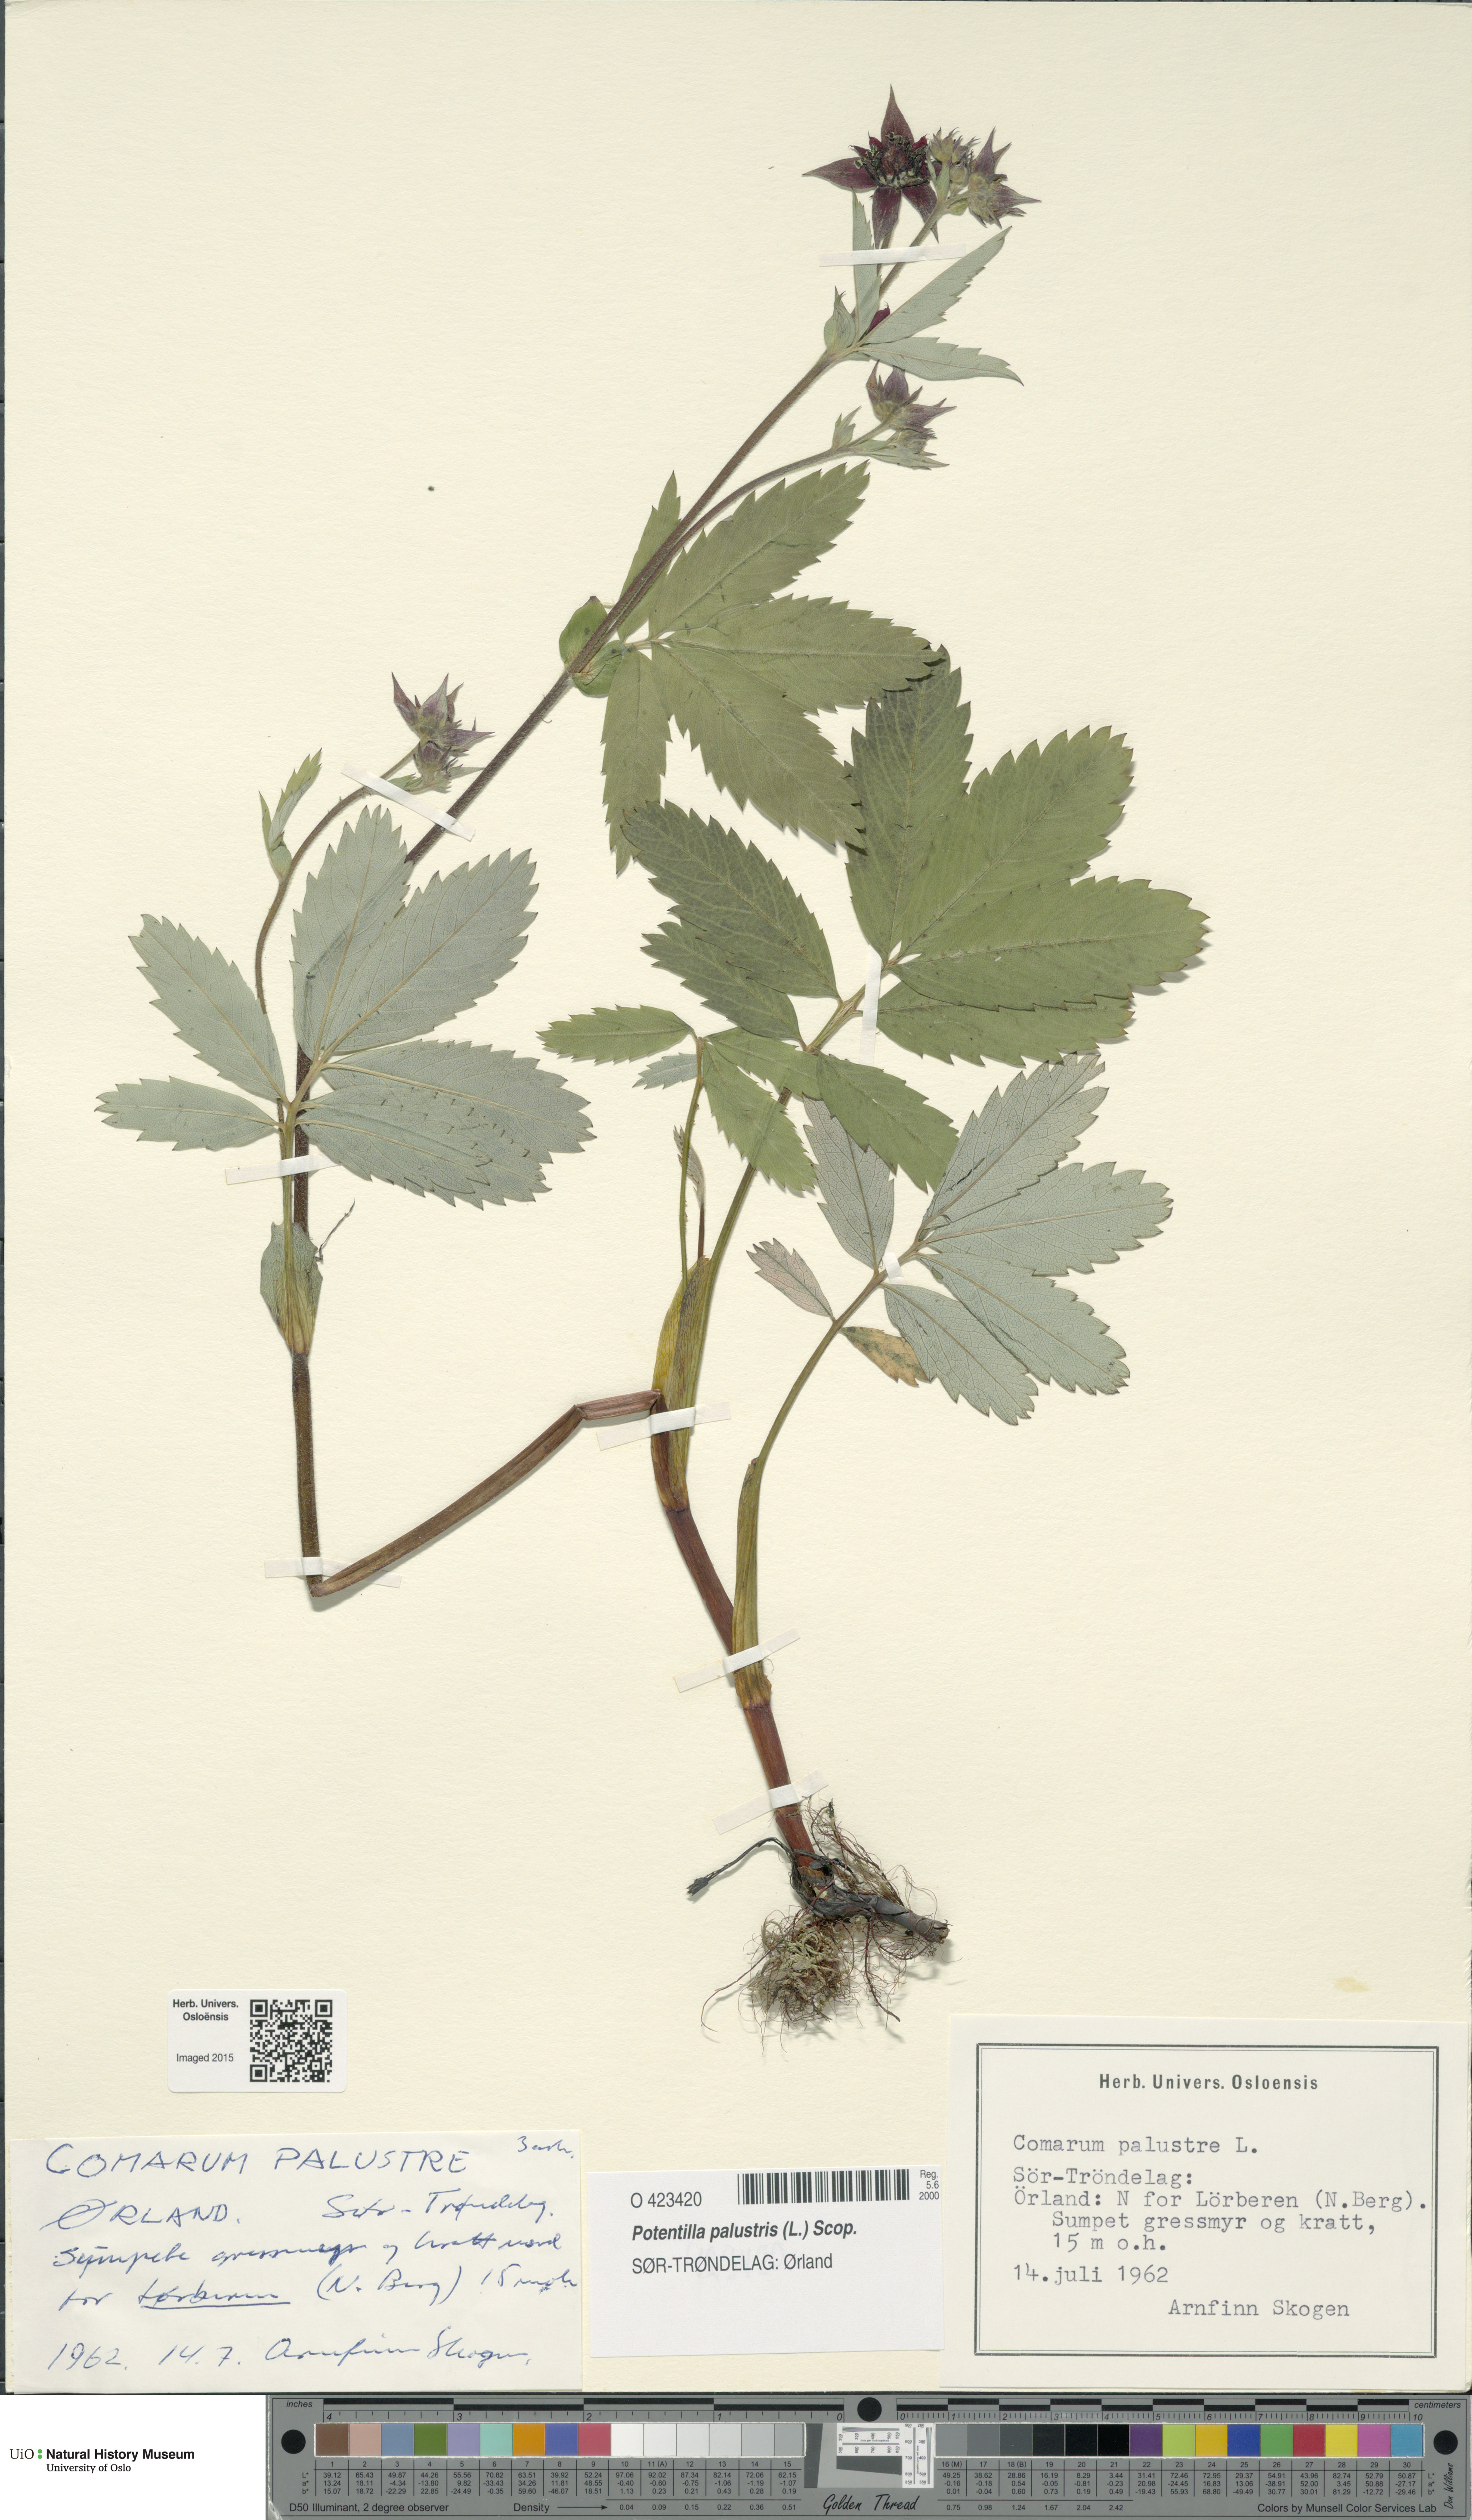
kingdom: Plantae
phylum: Tracheophyta
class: Magnoliopsida
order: Rosales
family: Rosaceae
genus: Comarum
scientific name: Comarum palustre
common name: Marsh cinquefoil
